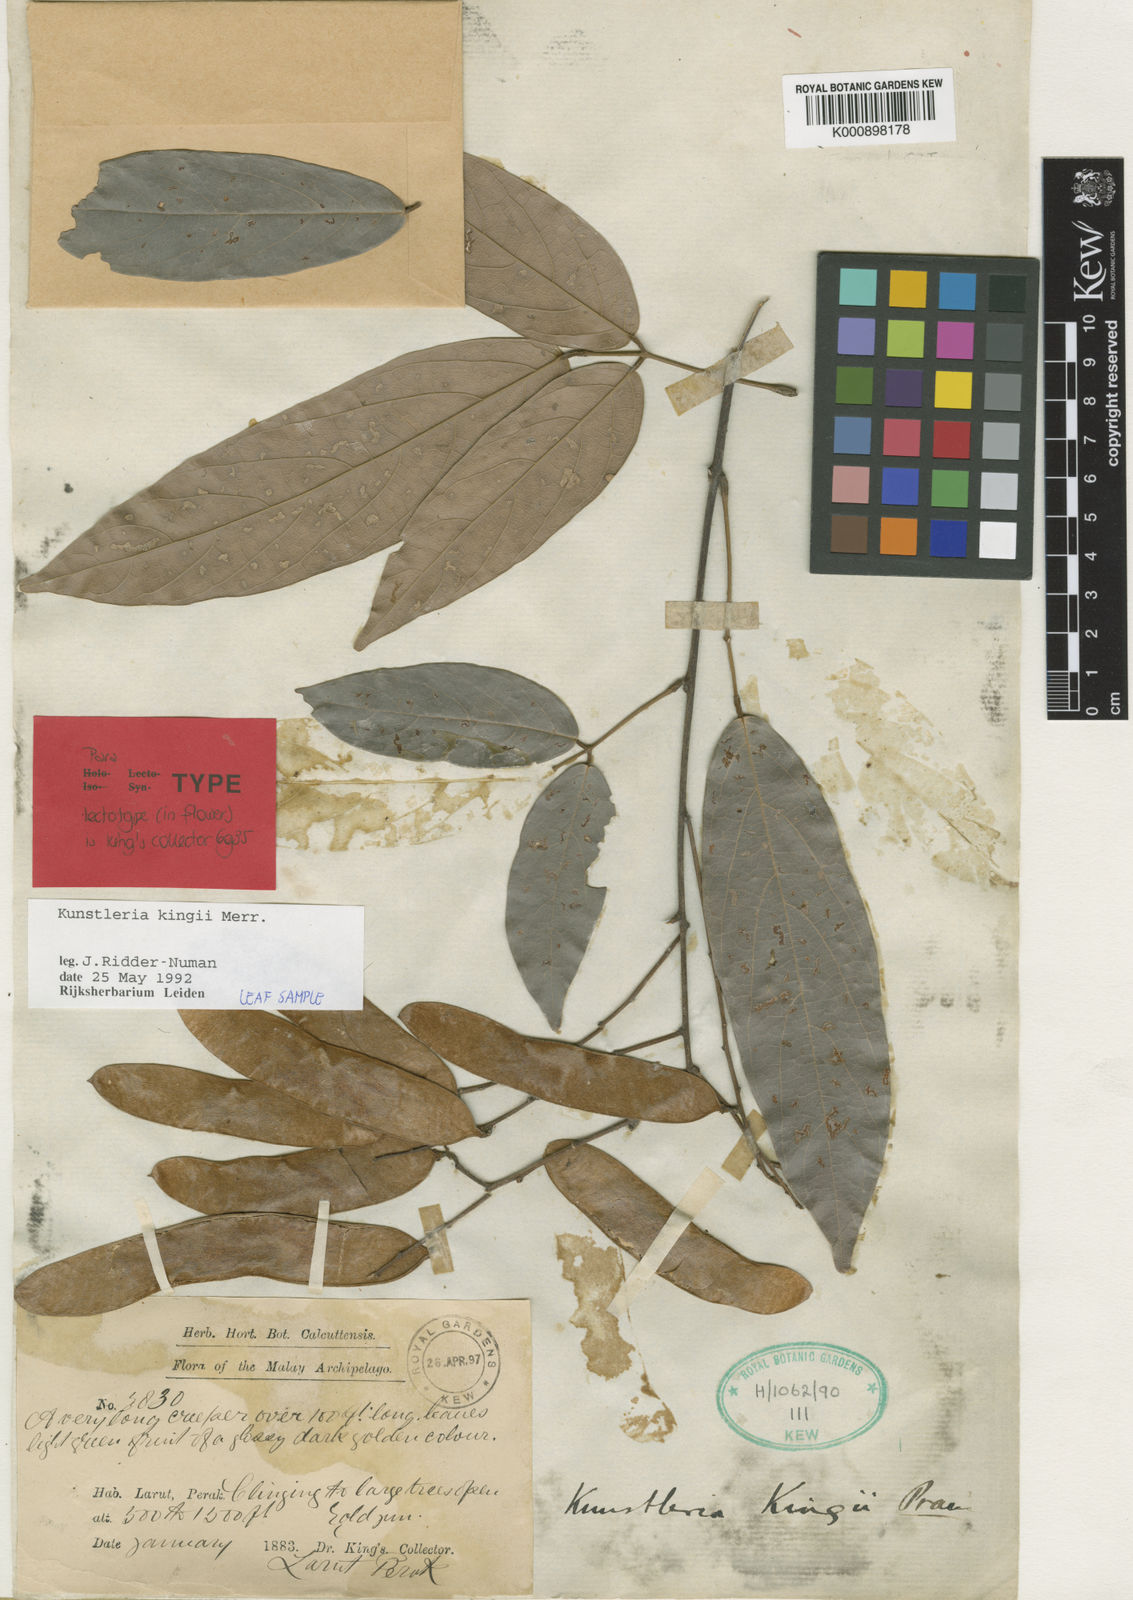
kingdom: Plantae
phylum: Tracheophyta
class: Magnoliopsida
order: Fabales
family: Fabaceae
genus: Kunstleria
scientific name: Kunstleria kingii
